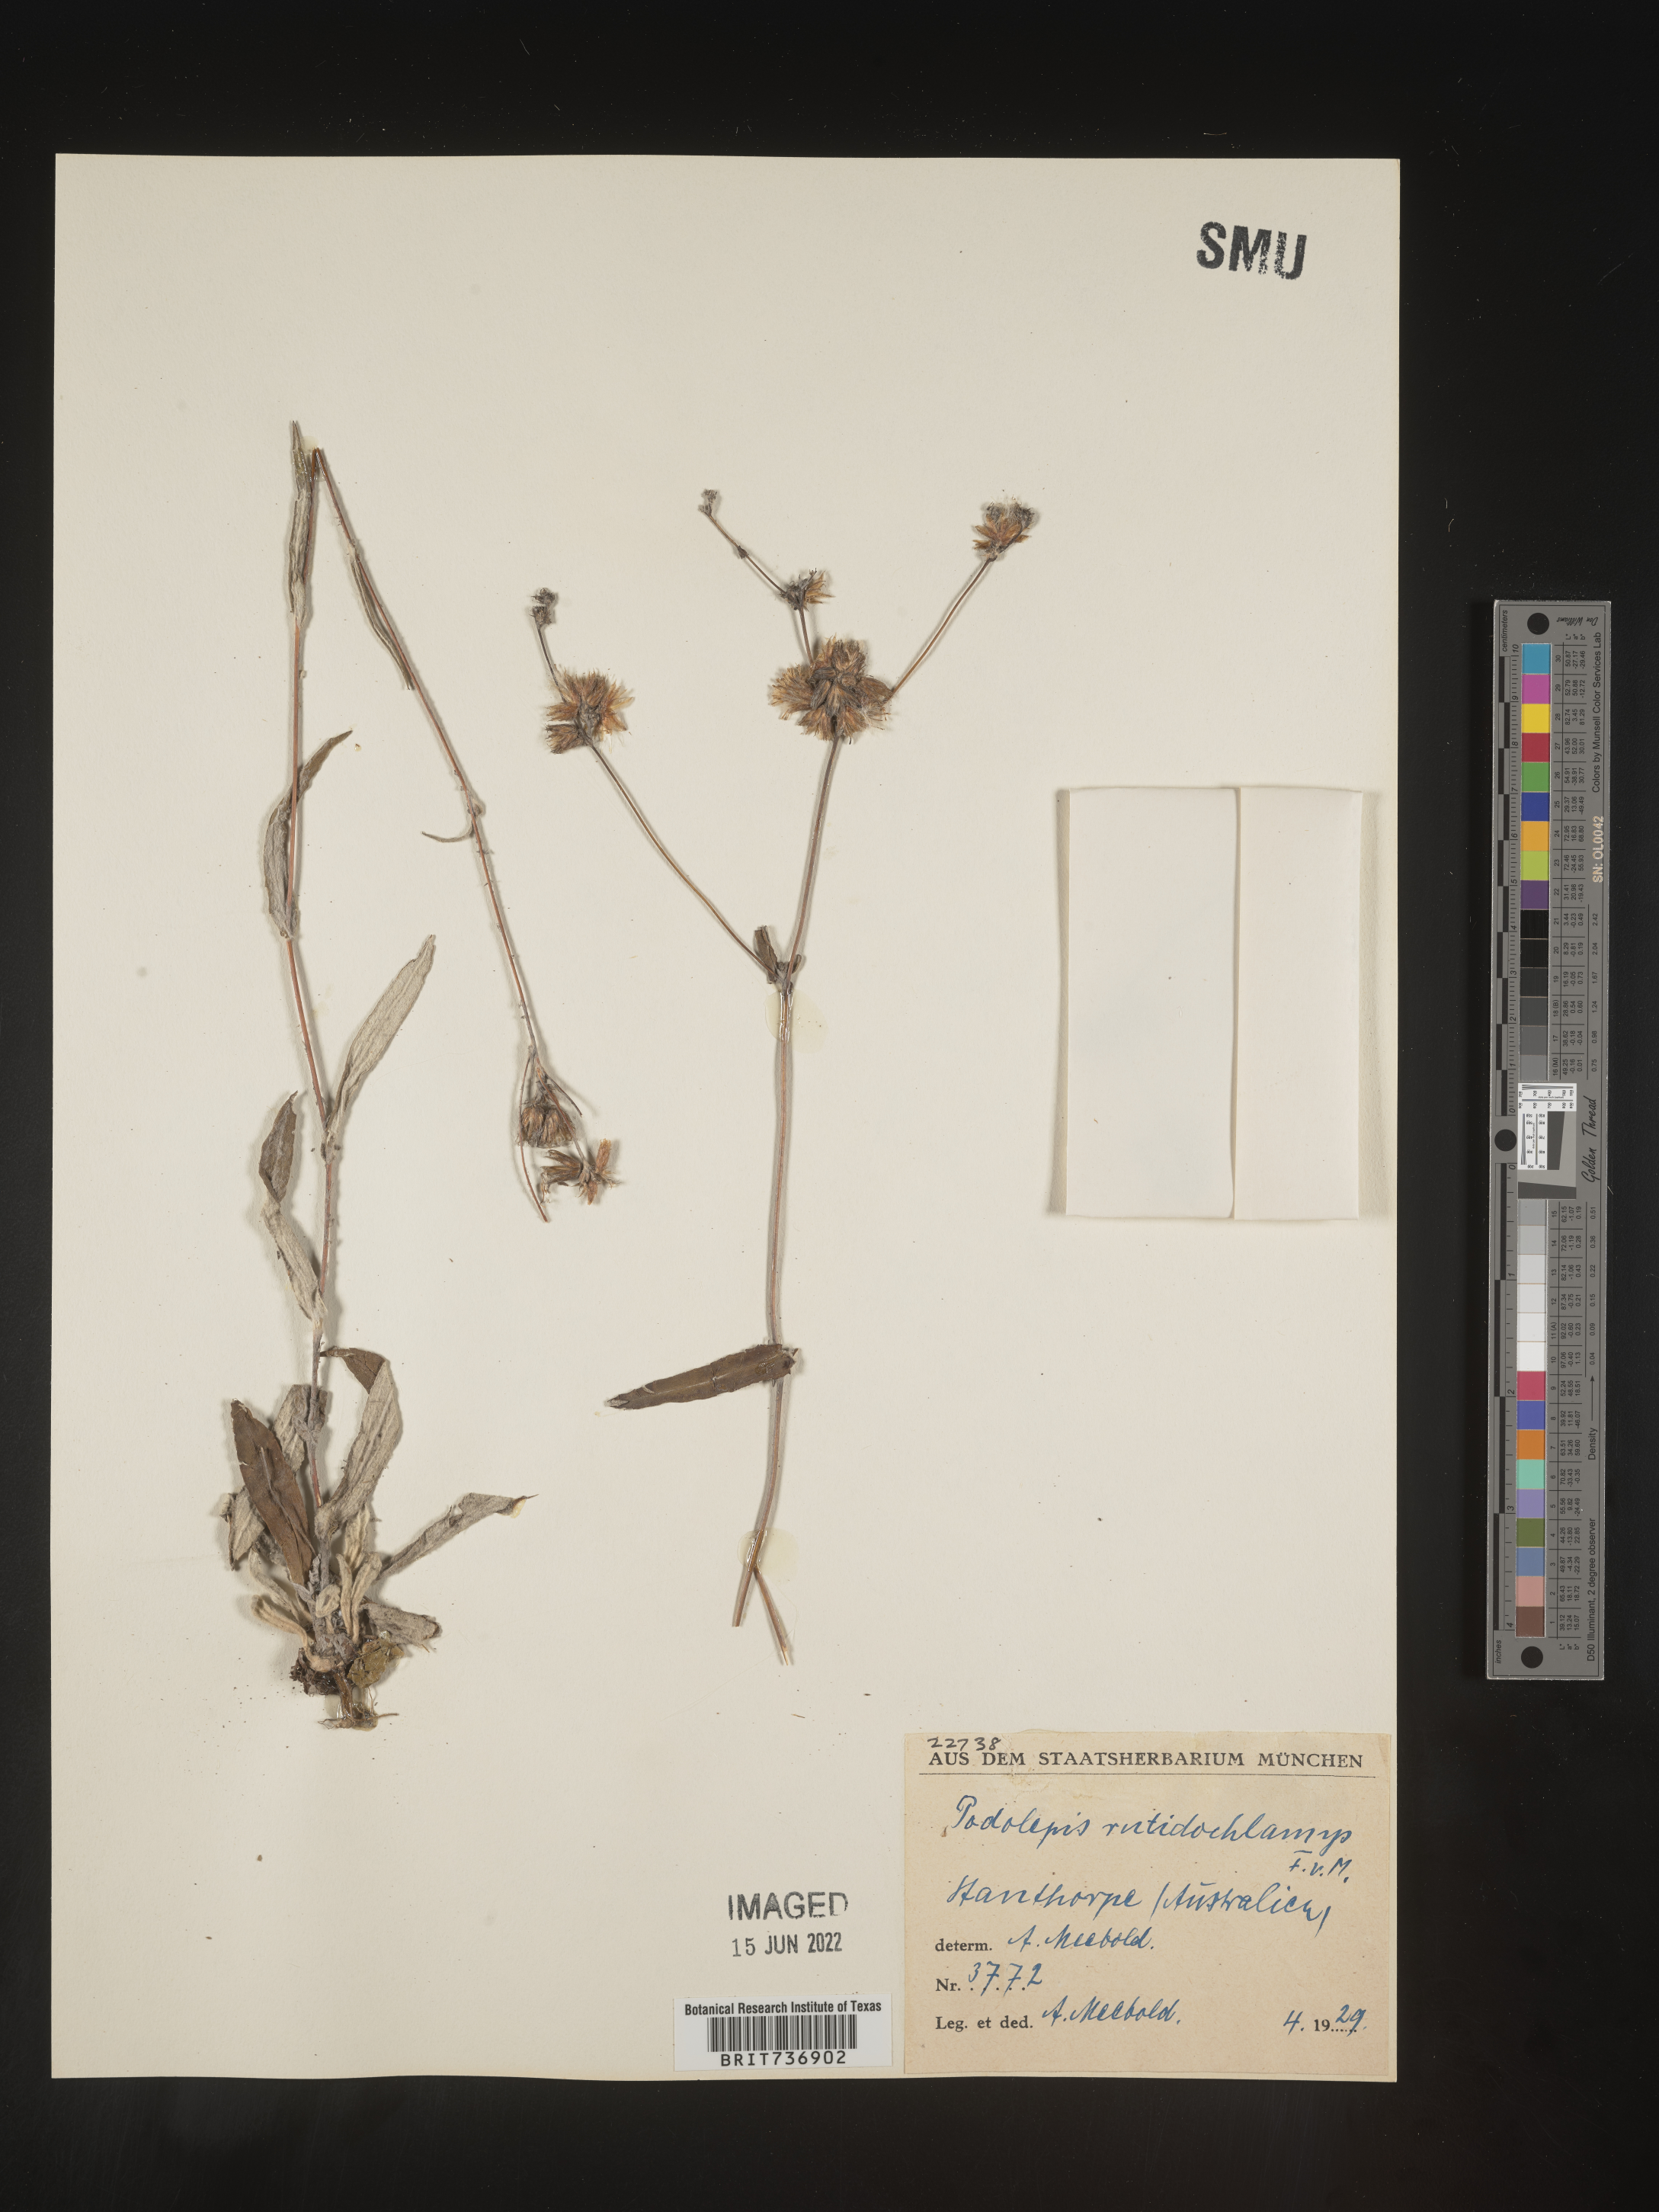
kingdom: Plantae
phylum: Tracheophyta
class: Magnoliopsida
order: Asterales
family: Asteraceae
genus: Podolepis
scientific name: Podolepis
